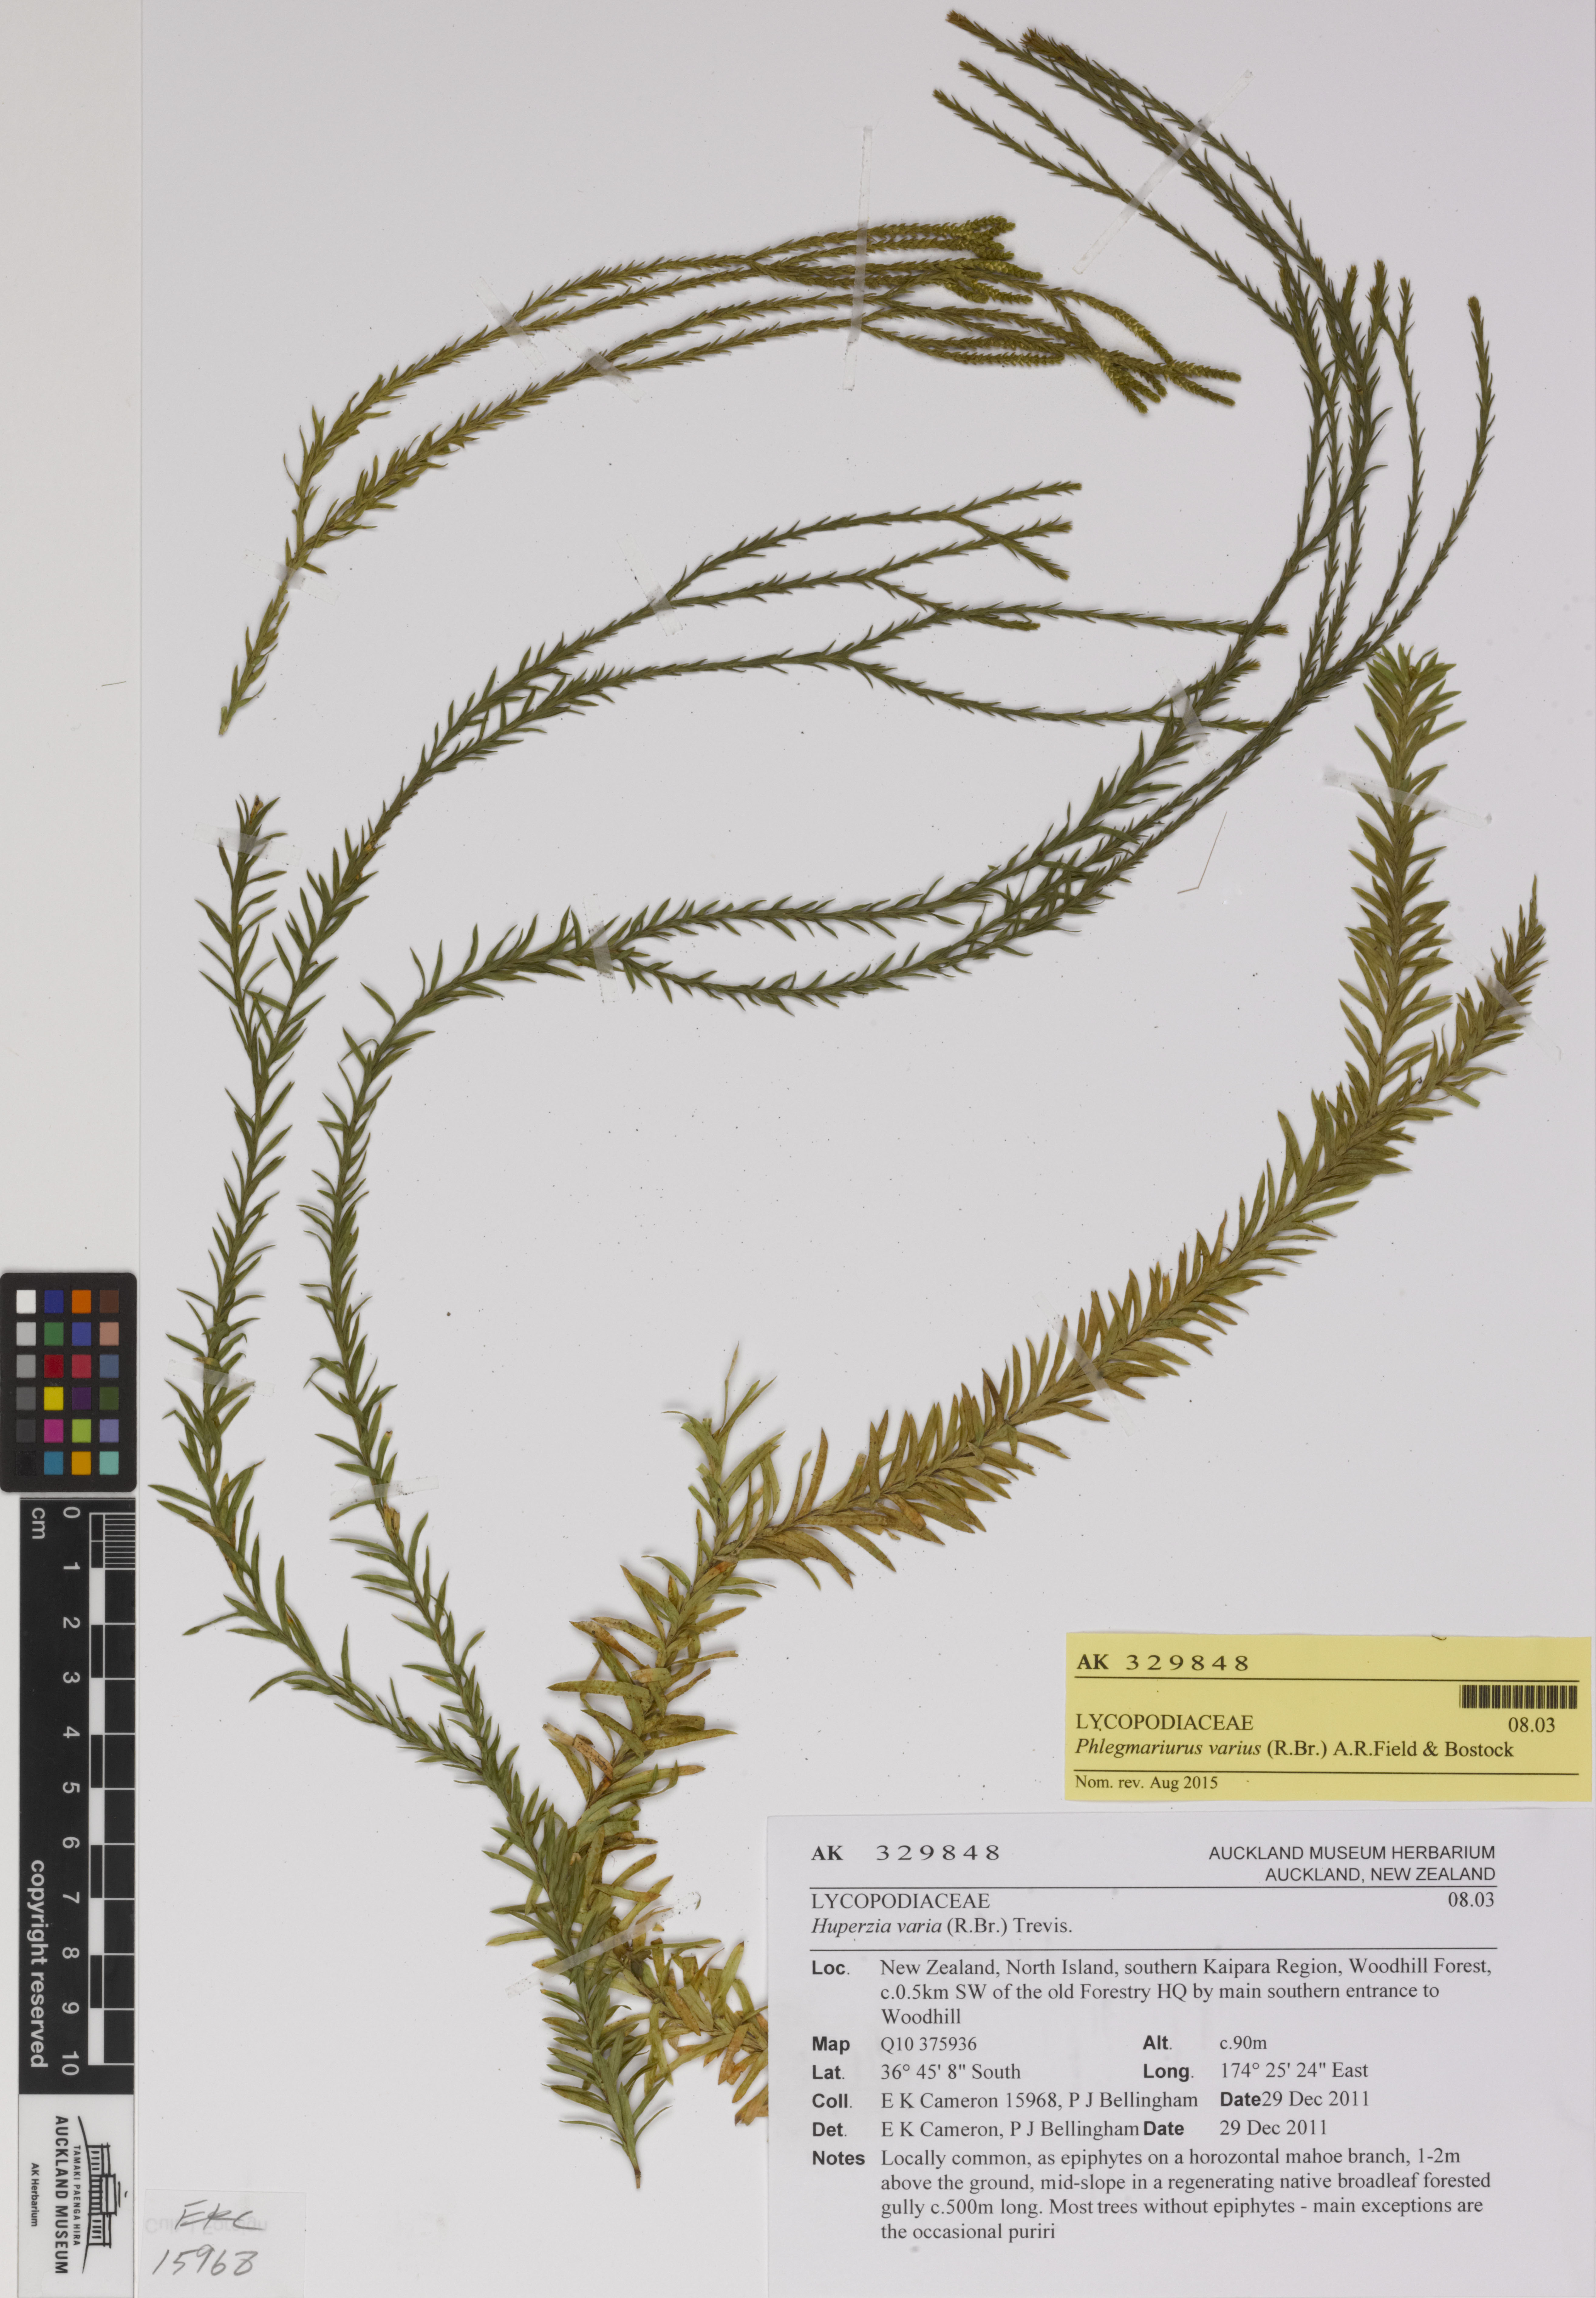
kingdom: Plantae
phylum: Tracheophyta
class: Lycopodiopsida
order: Lycopodiales
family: Lycopodiaceae
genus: Phlegmariurus
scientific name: Phlegmariurus billardierei
